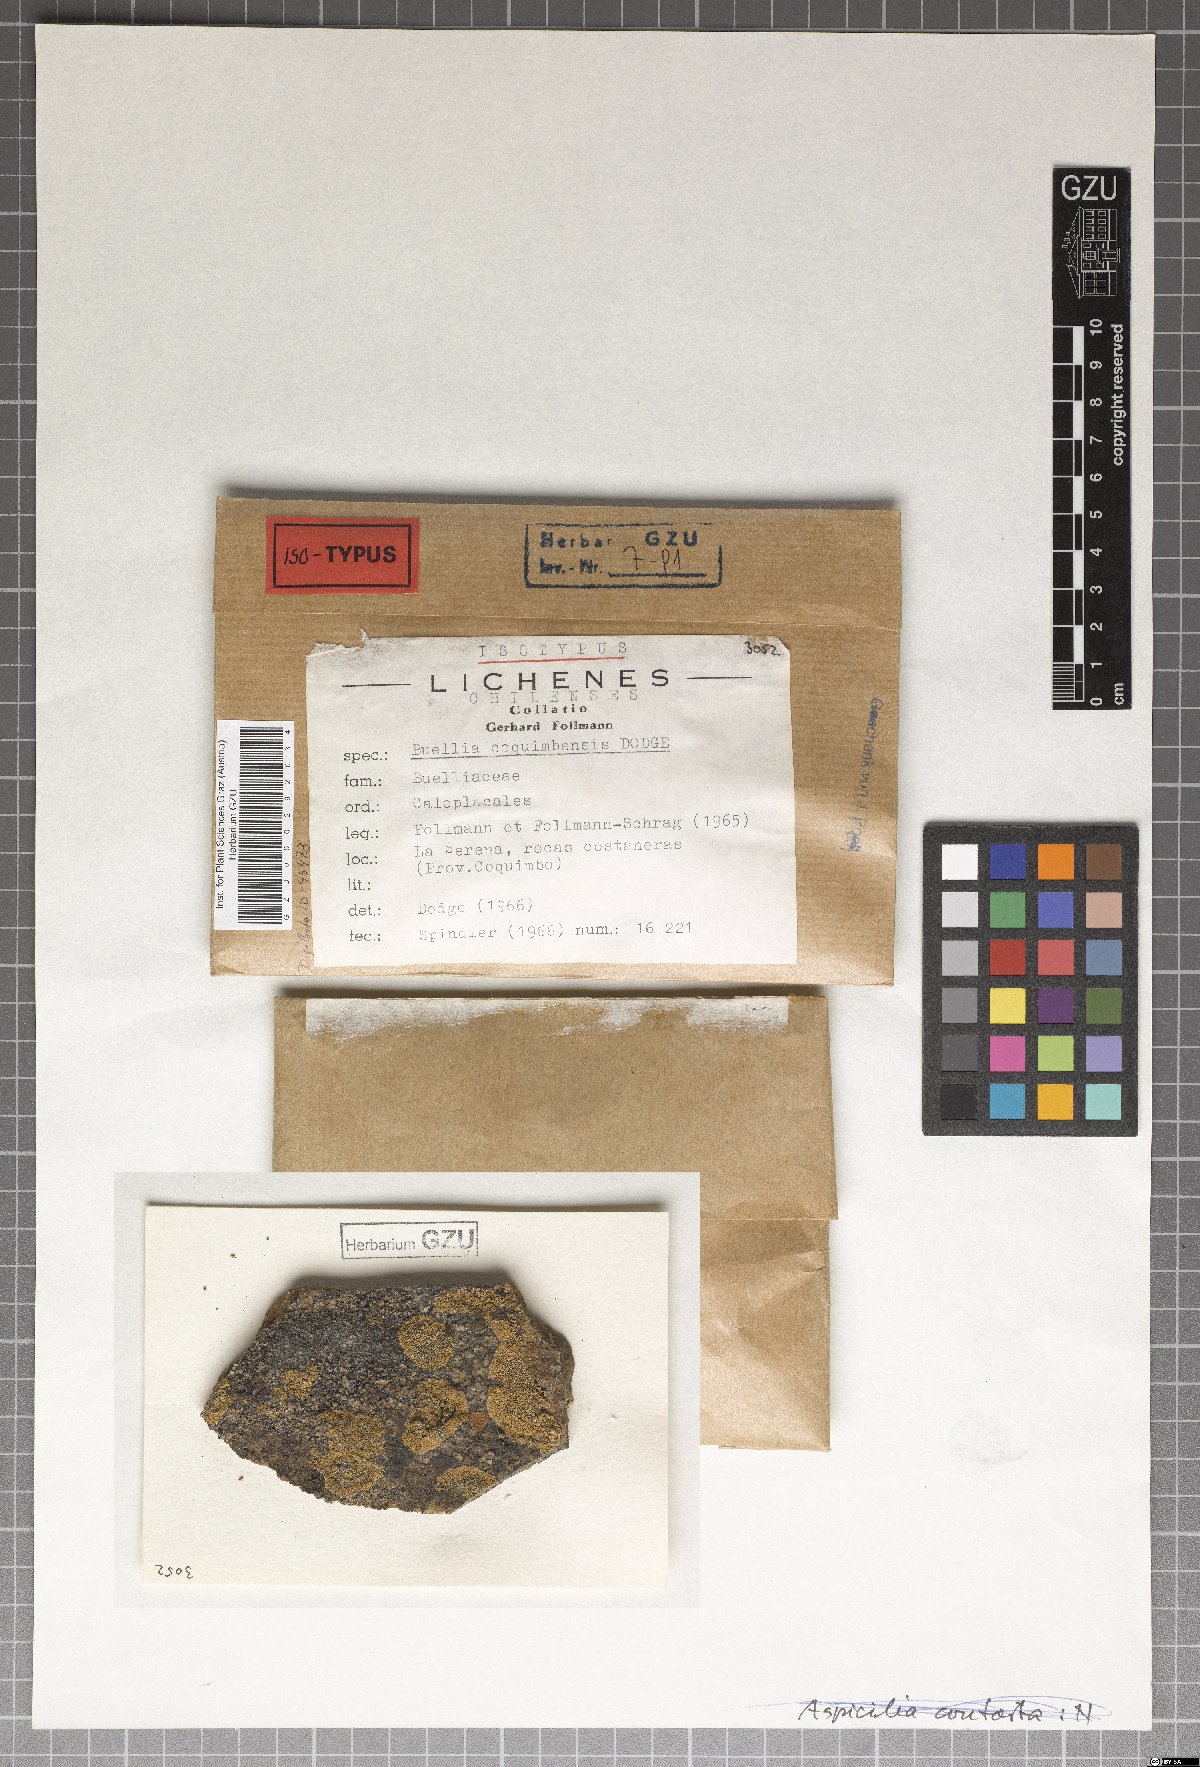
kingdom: Fungi
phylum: Ascomycota
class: Lecanoromycetes
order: Caliciales
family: Caliciaceae
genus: Tetramelas
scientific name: Tetramelas coquimbensis
